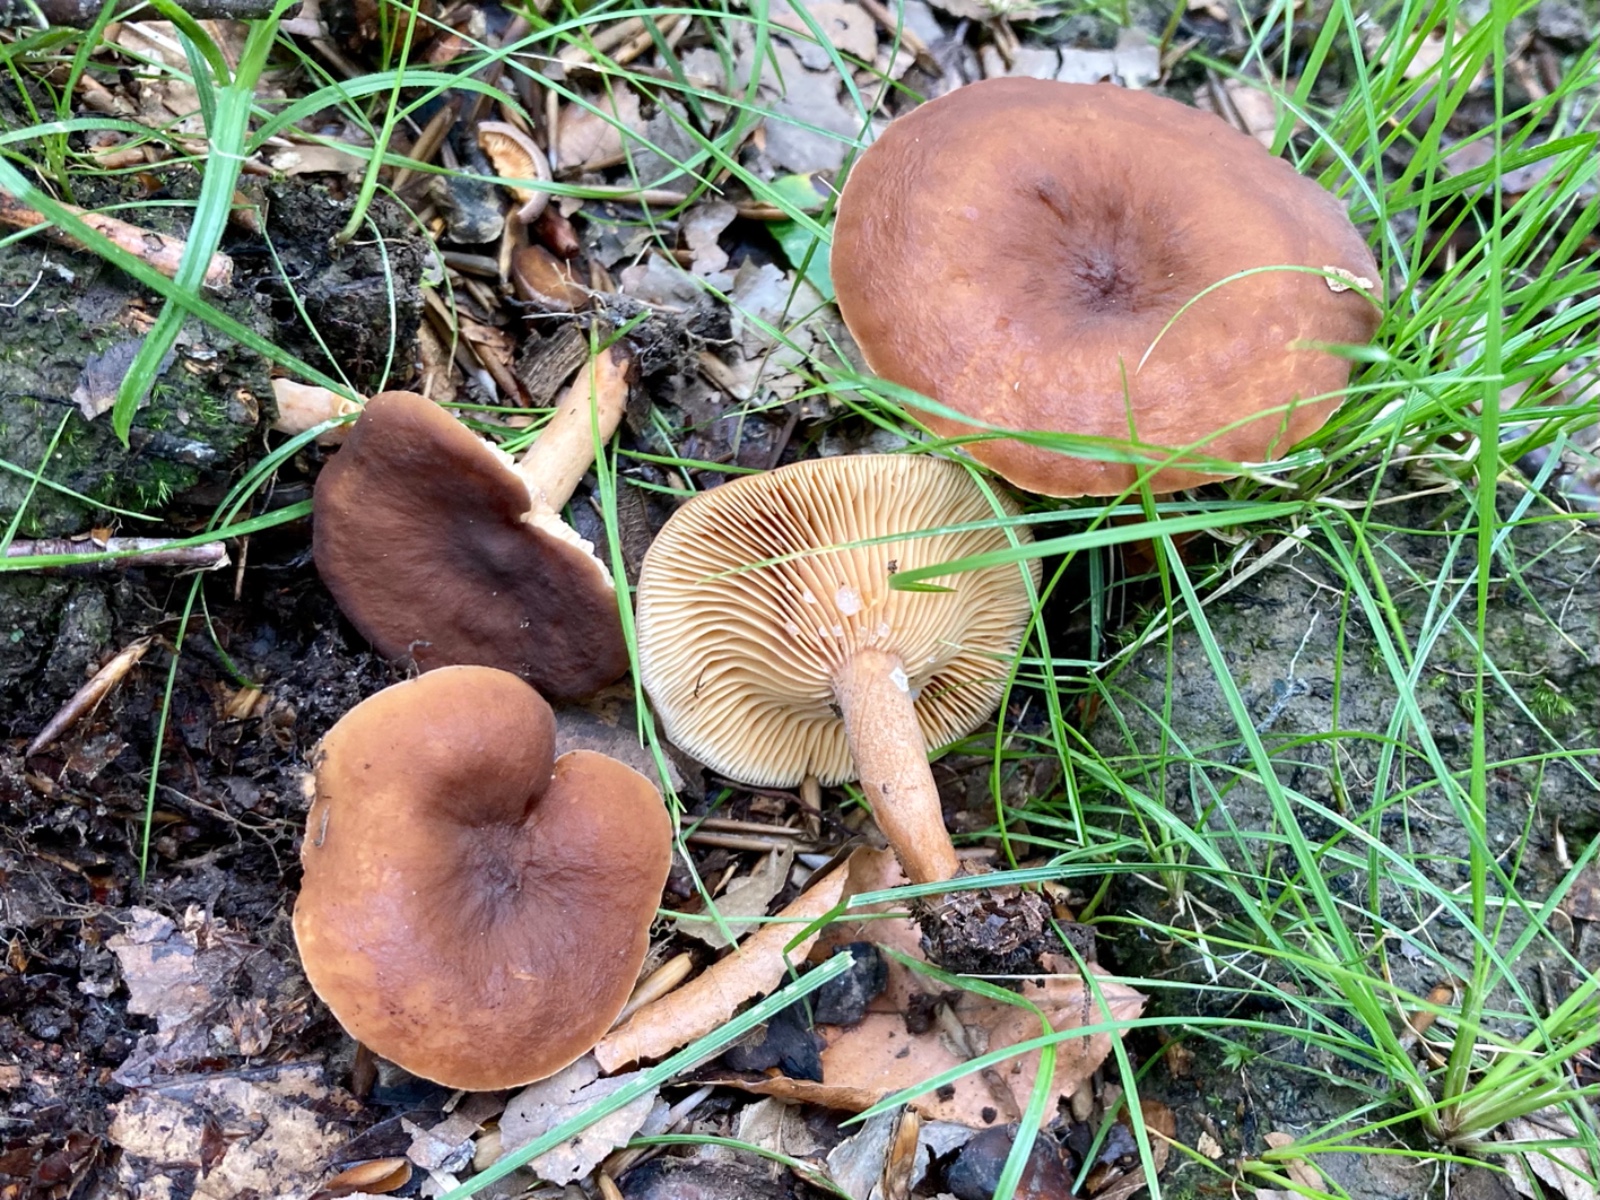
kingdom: Fungi
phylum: Basidiomycota
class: Agaricomycetes
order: Russulales
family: Russulaceae
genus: Lactarius
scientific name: Lactarius camphoratus
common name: kamfer-mælkehat
